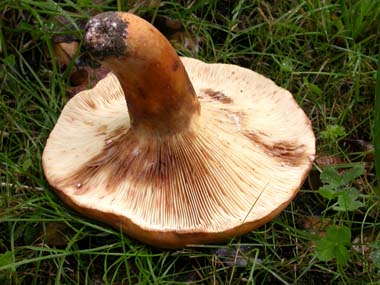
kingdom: Fungi
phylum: Basidiomycota
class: Agaricomycetes
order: Russulales
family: Russulaceae
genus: Lactifluus
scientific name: Lactifluus volemus
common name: spiselig mælkehat
